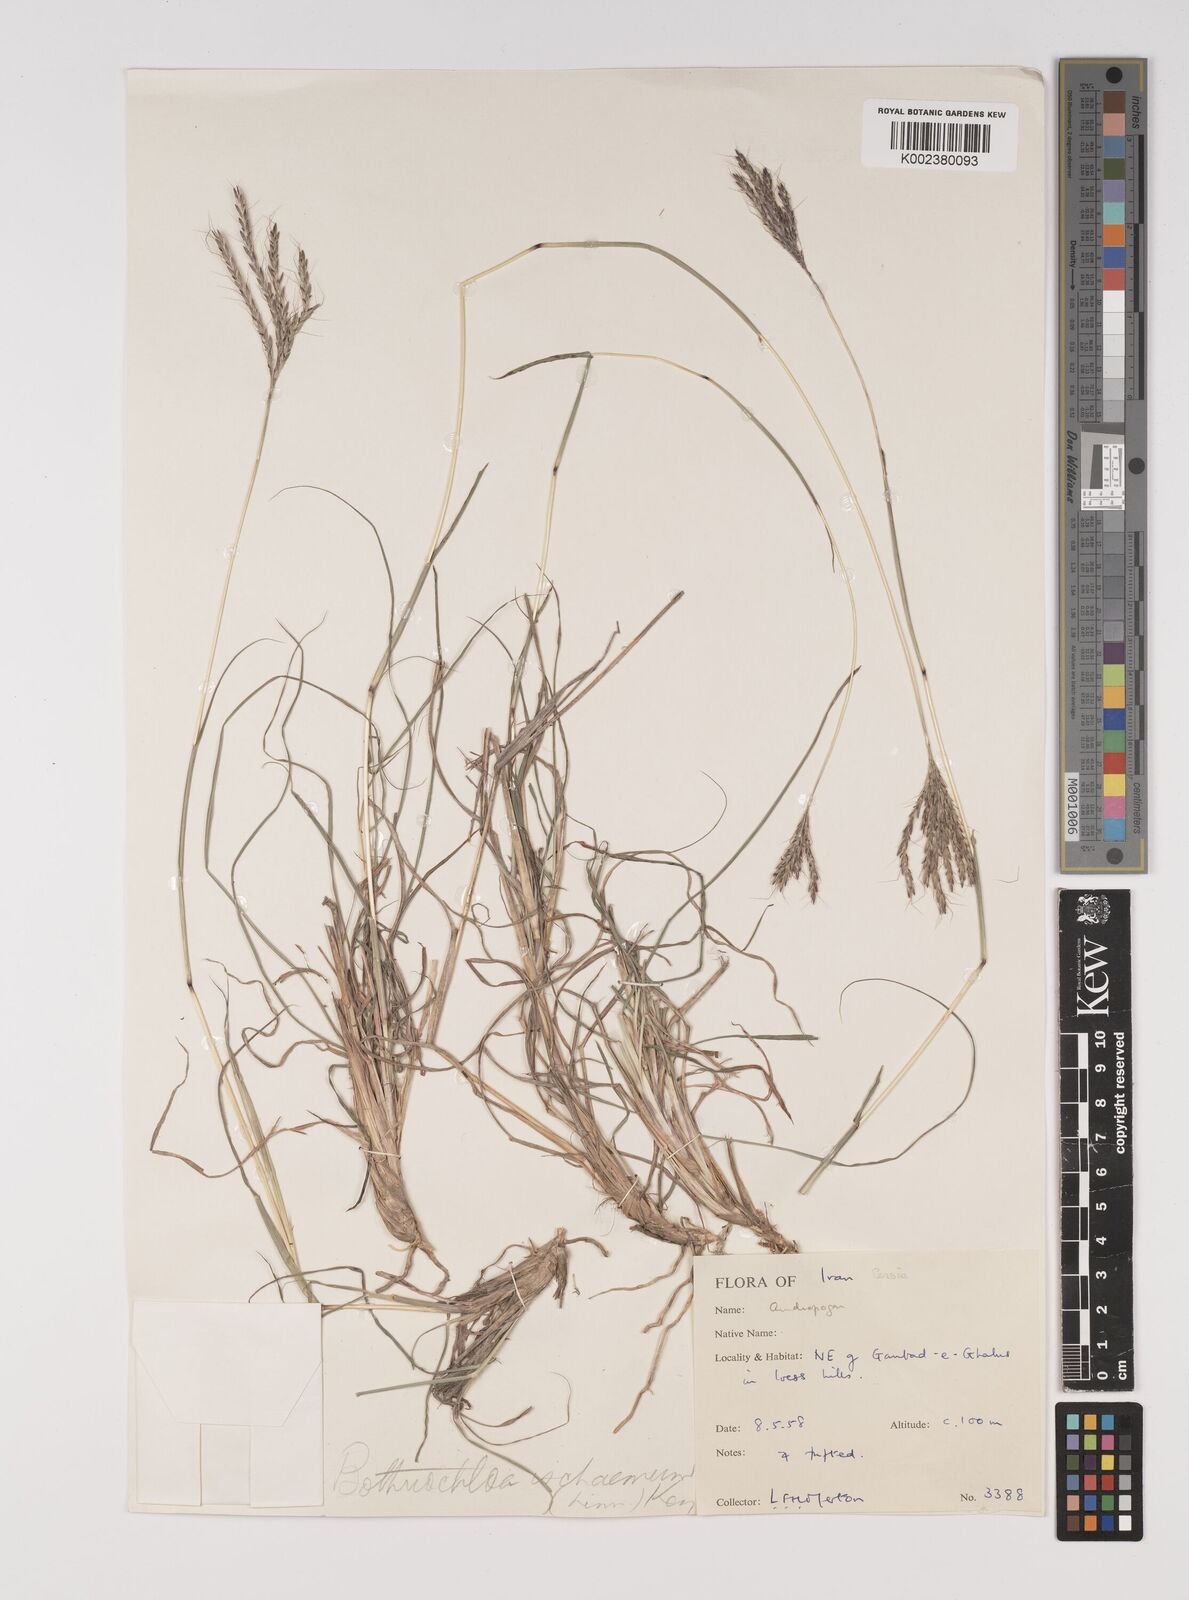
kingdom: Plantae
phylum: Tracheophyta
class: Liliopsida
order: Poales
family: Poaceae
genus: Bothriochloa
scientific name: Bothriochloa ischaemum
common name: Yellow bluestem
